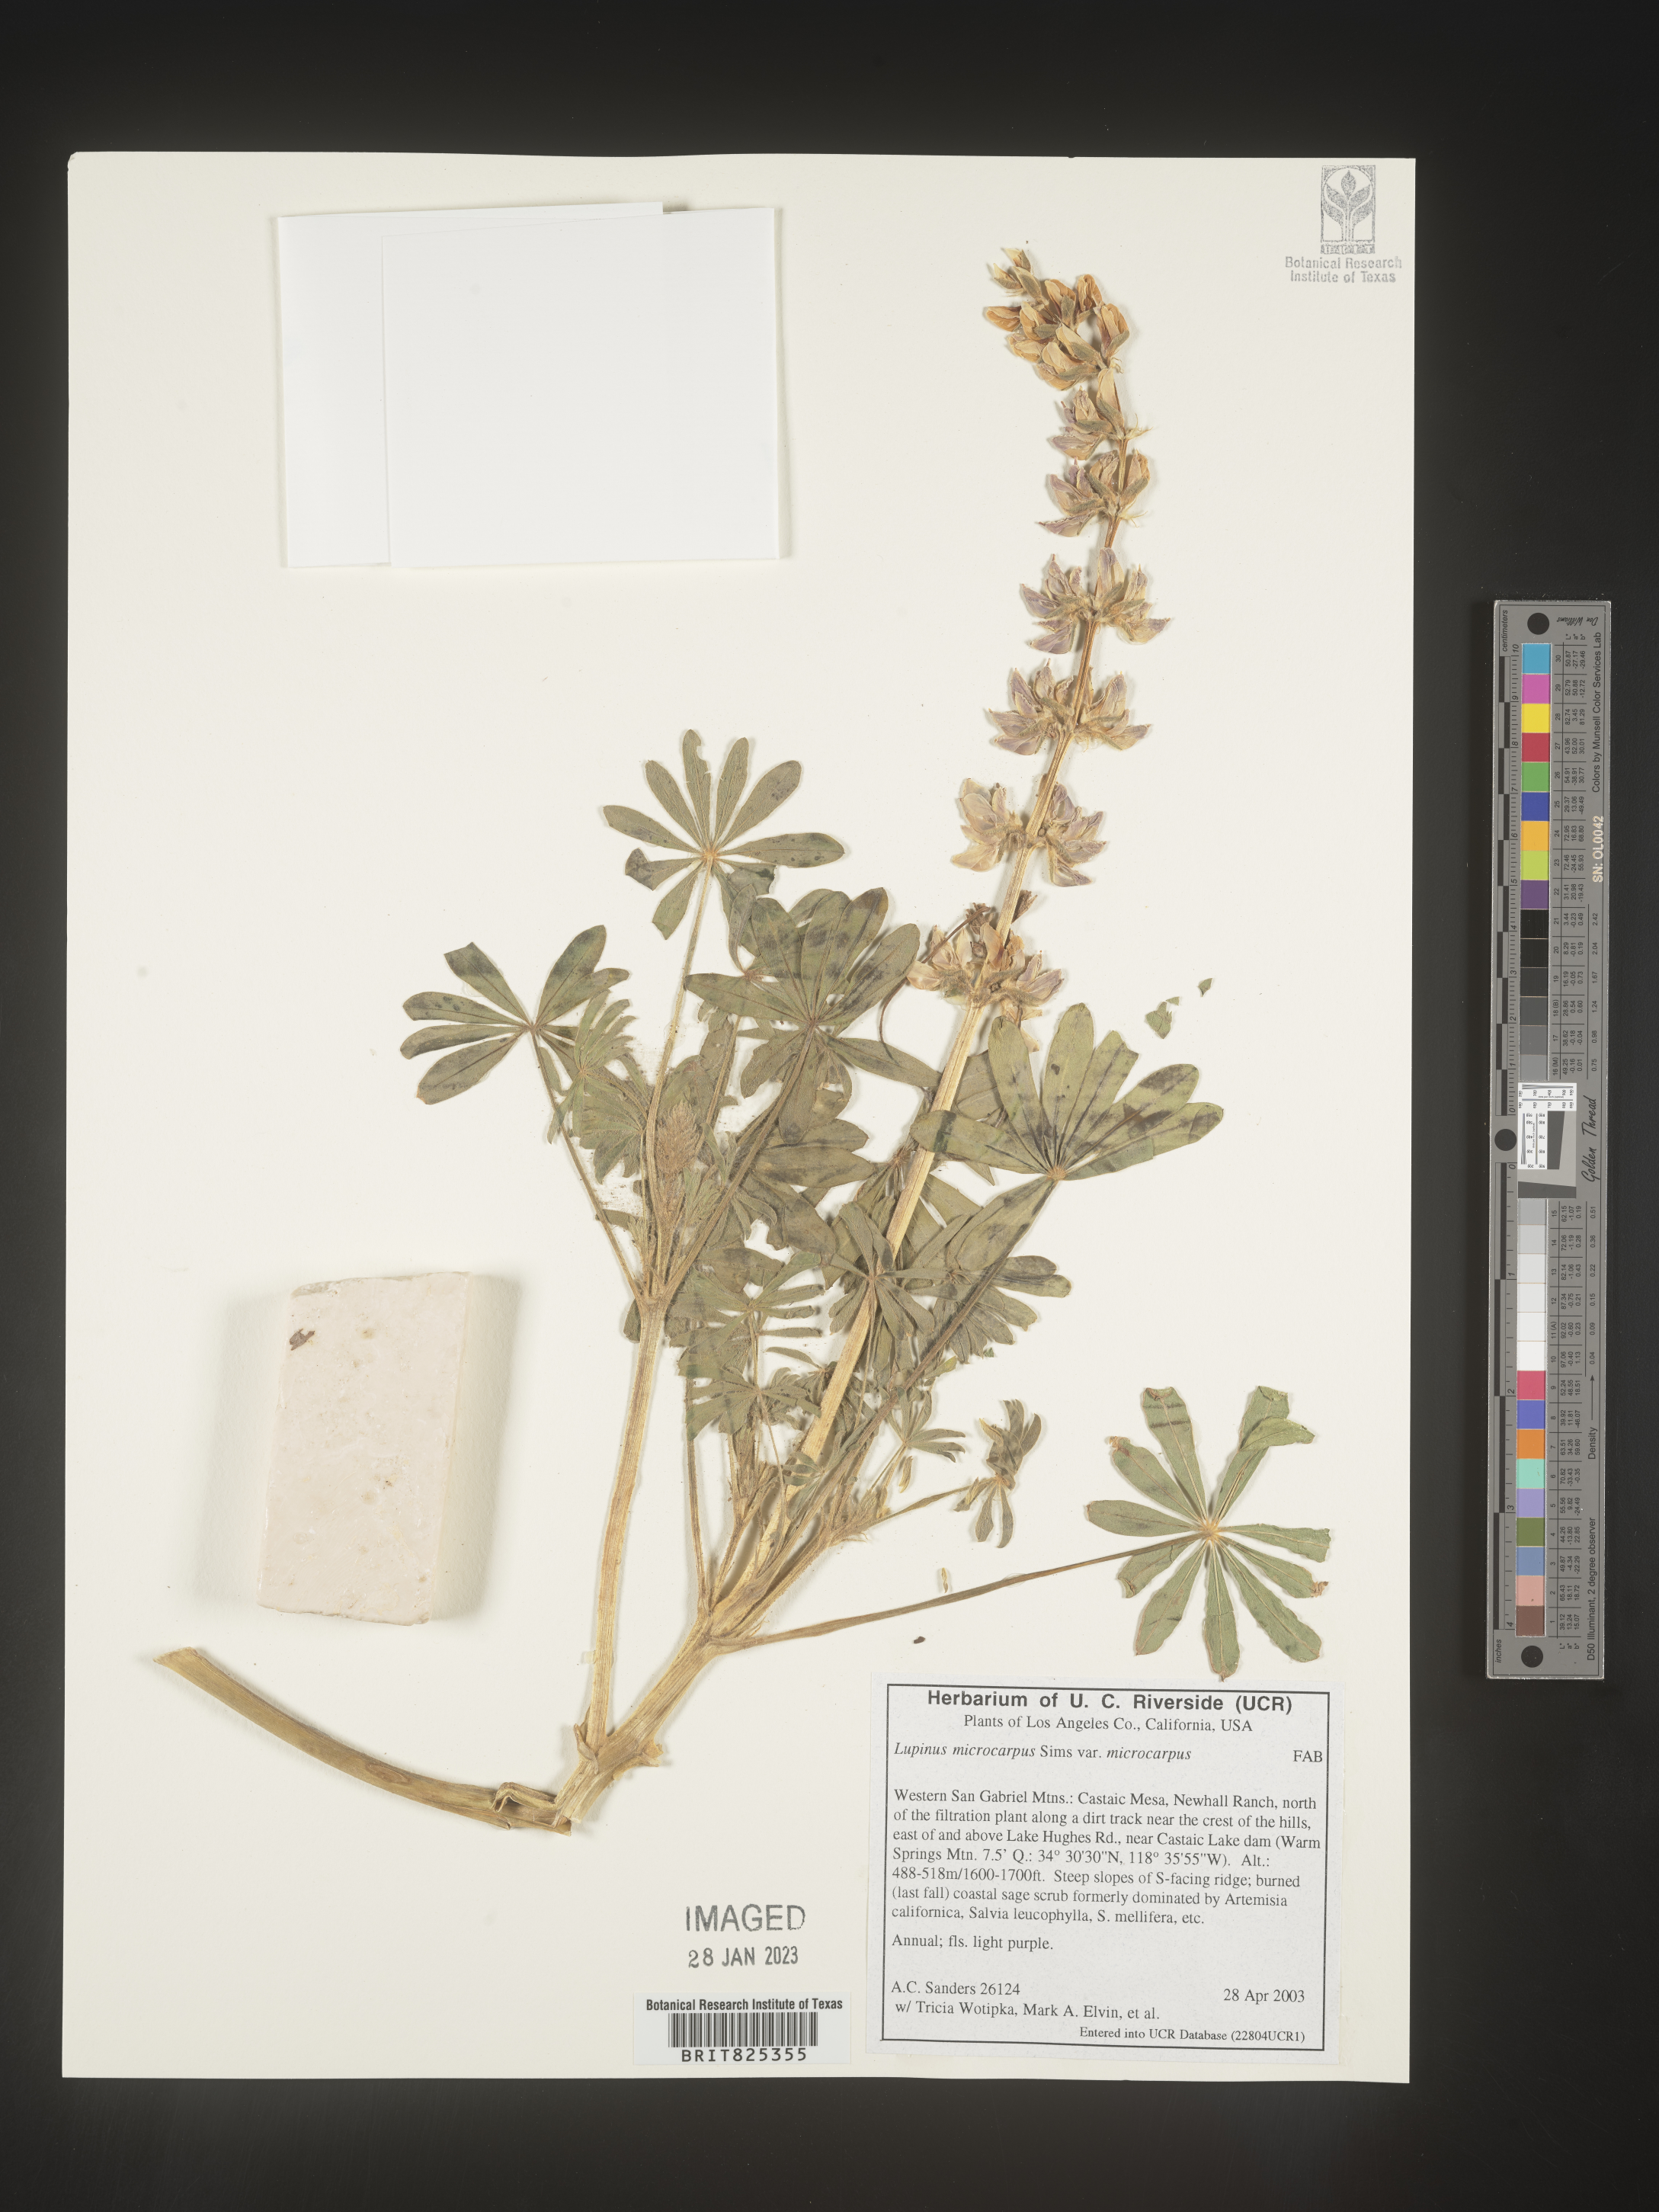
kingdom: Plantae
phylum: Tracheophyta
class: Magnoliopsida
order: Fabales
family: Fabaceae
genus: Lupinus
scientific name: Lupinus
